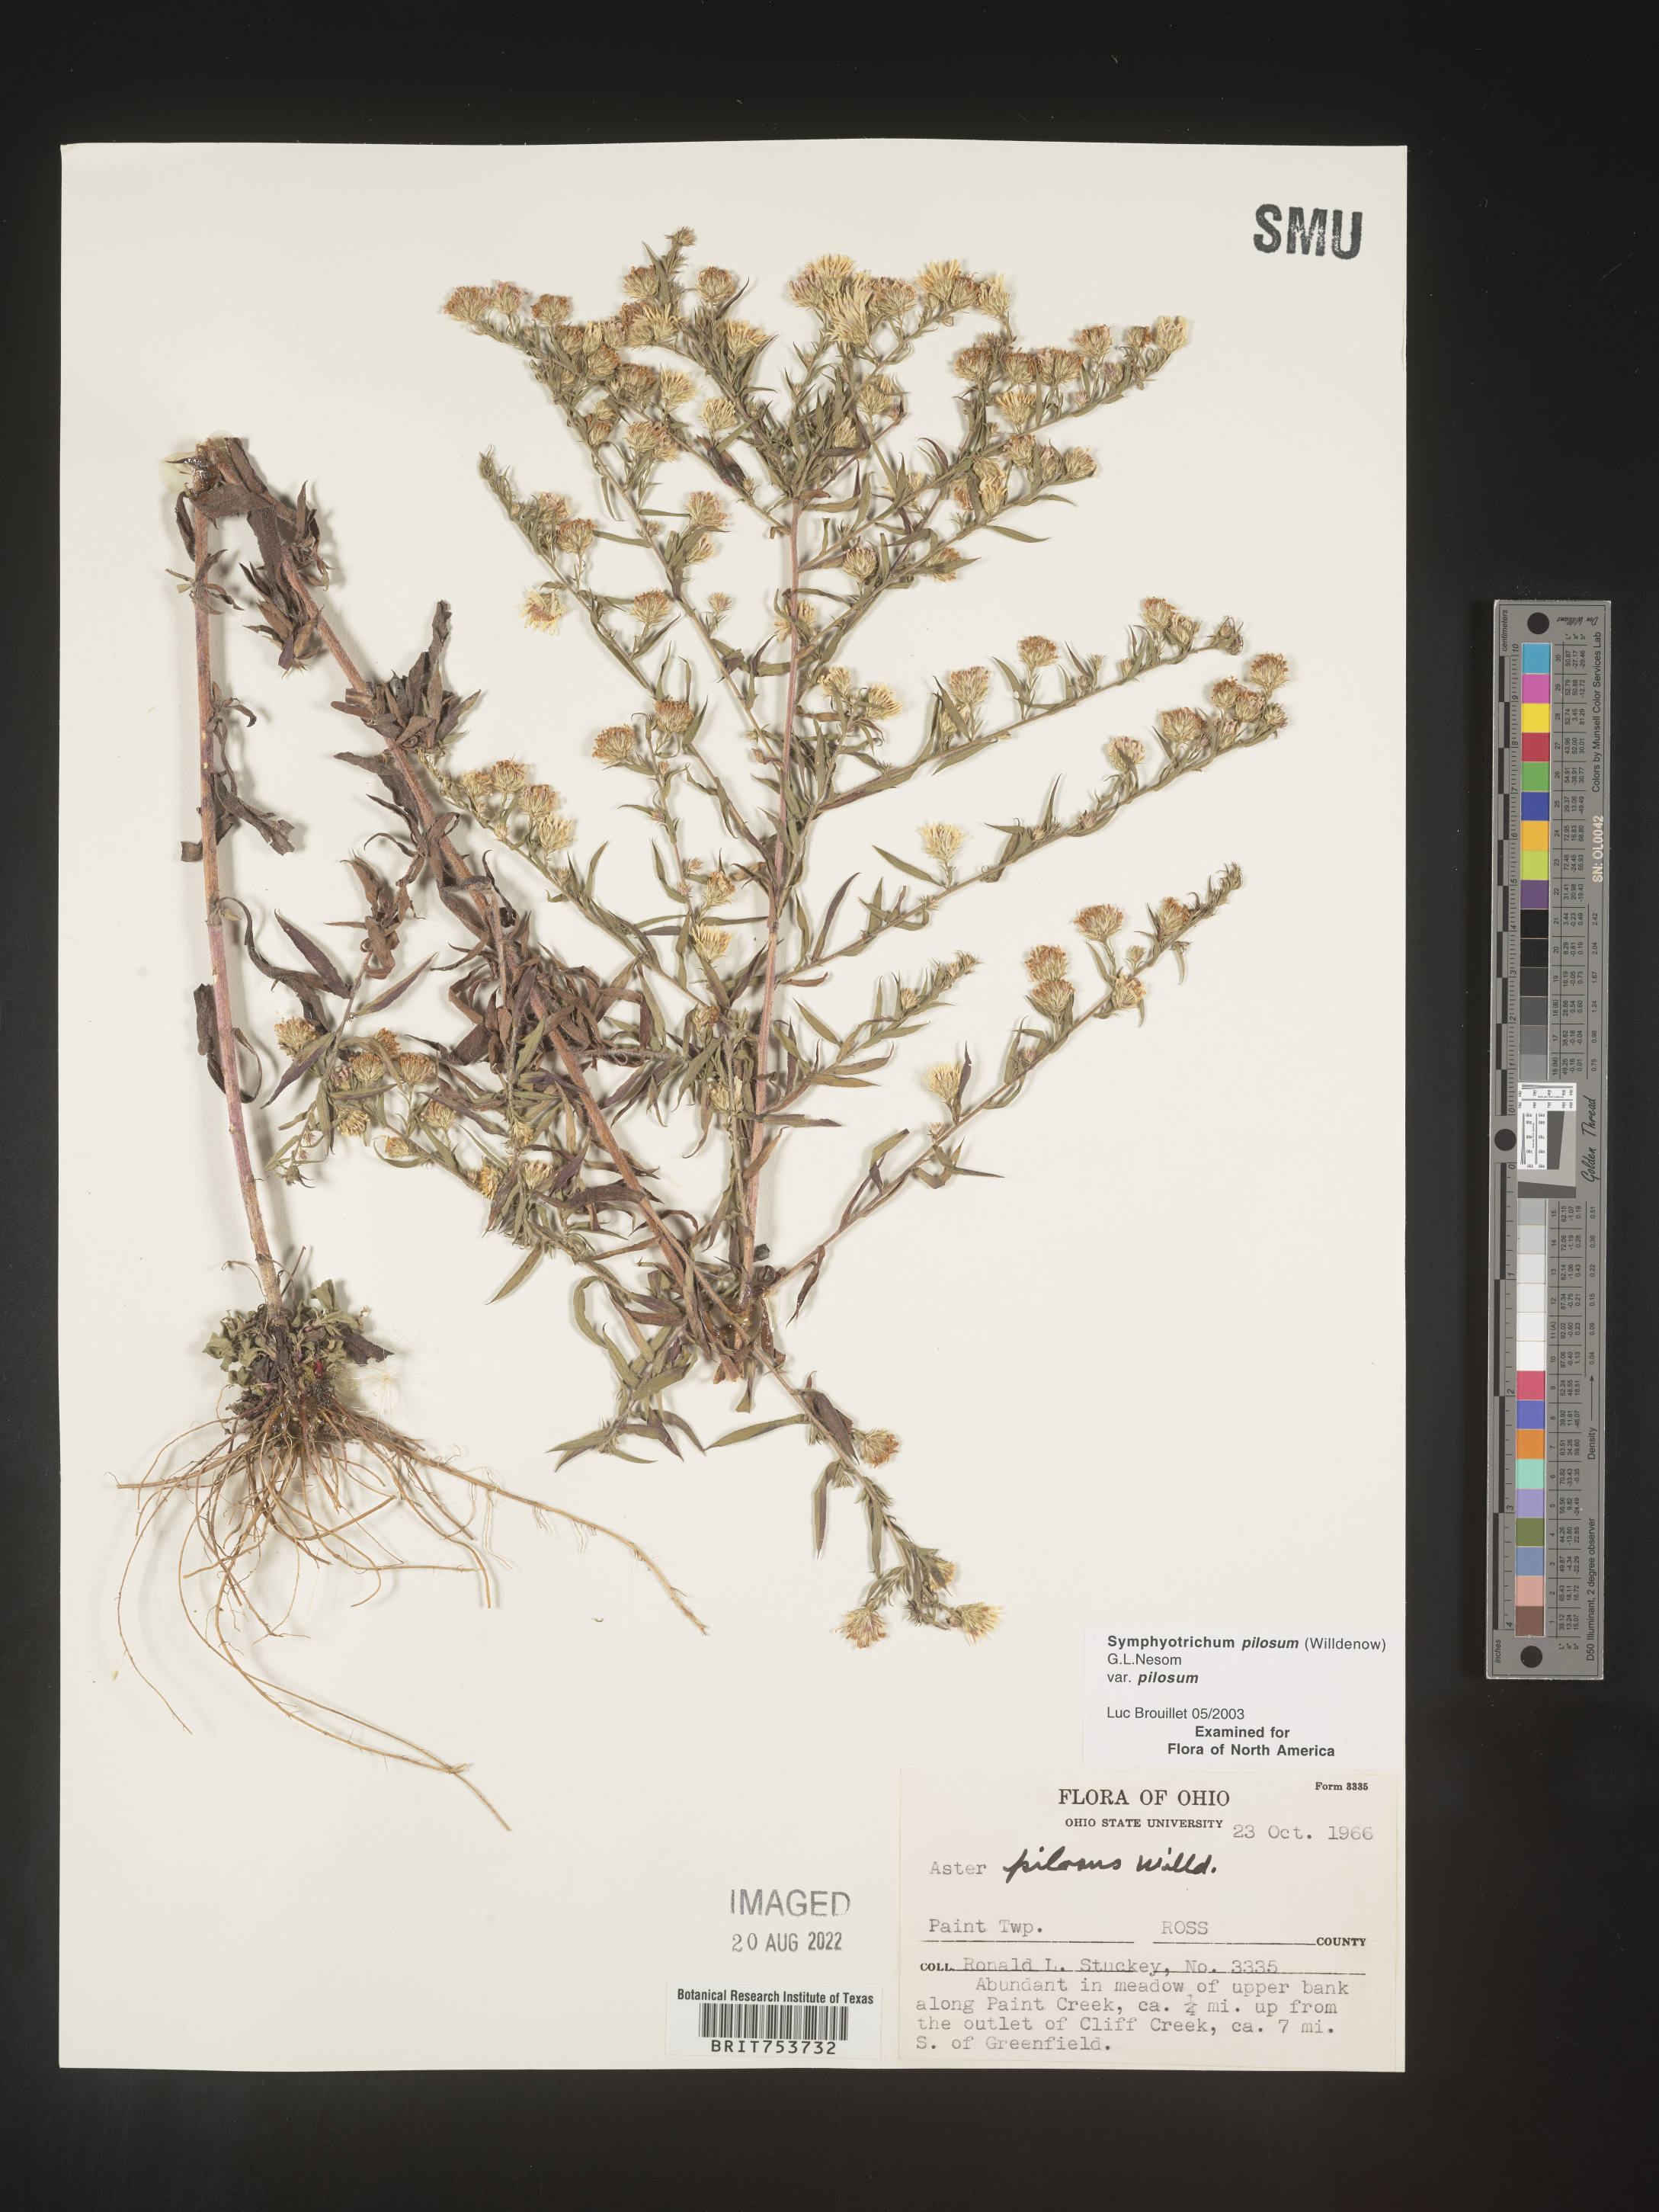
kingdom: Plantae
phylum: Tracheophyta
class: Magnoliopsida
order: Asterales
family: Asteraceae
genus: Symphyotrichum
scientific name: Symphyotrichum pilosum
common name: Awl aster
